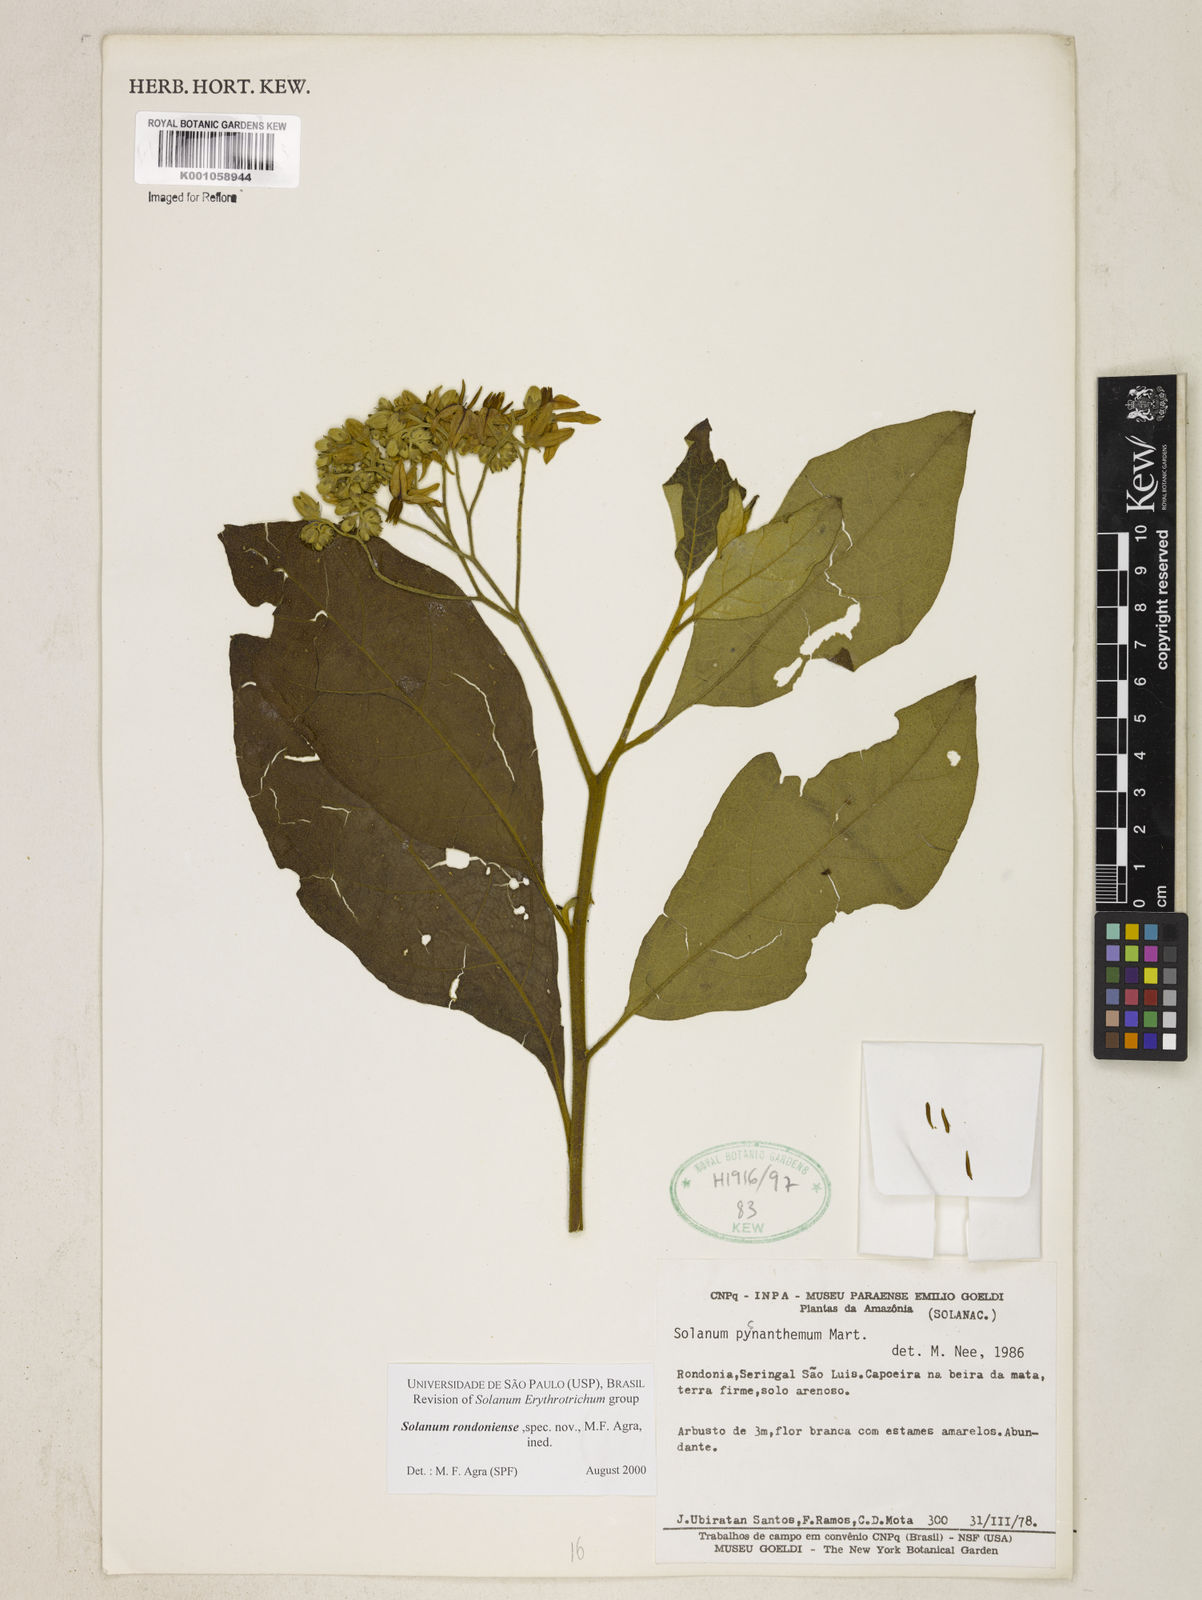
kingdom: Plantae
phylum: Tracheophyta
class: Magnoliopsida
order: Solanales
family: Solanaceae
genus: Solanum
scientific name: Solanum pycnanthemum
